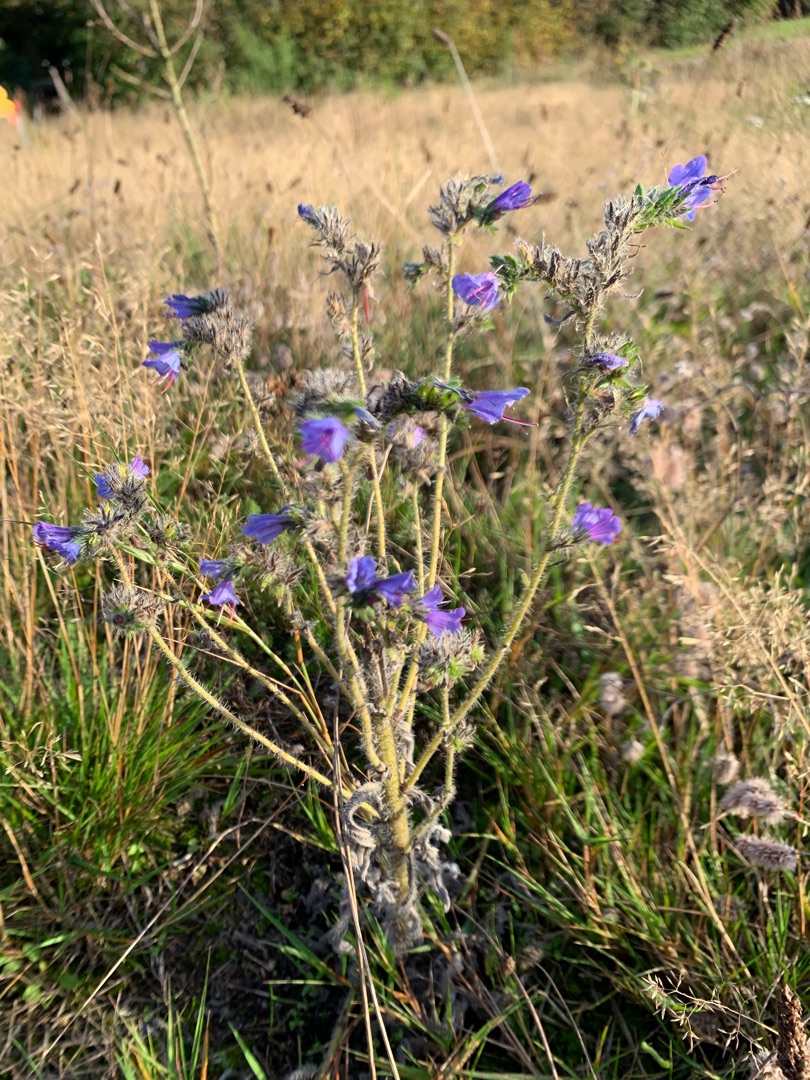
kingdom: Plantae
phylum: Tracheophyta
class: Magnoliopsida
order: Boraginales
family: Boraginaceae
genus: Echium
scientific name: Echium vulgare
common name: Slangehoved
